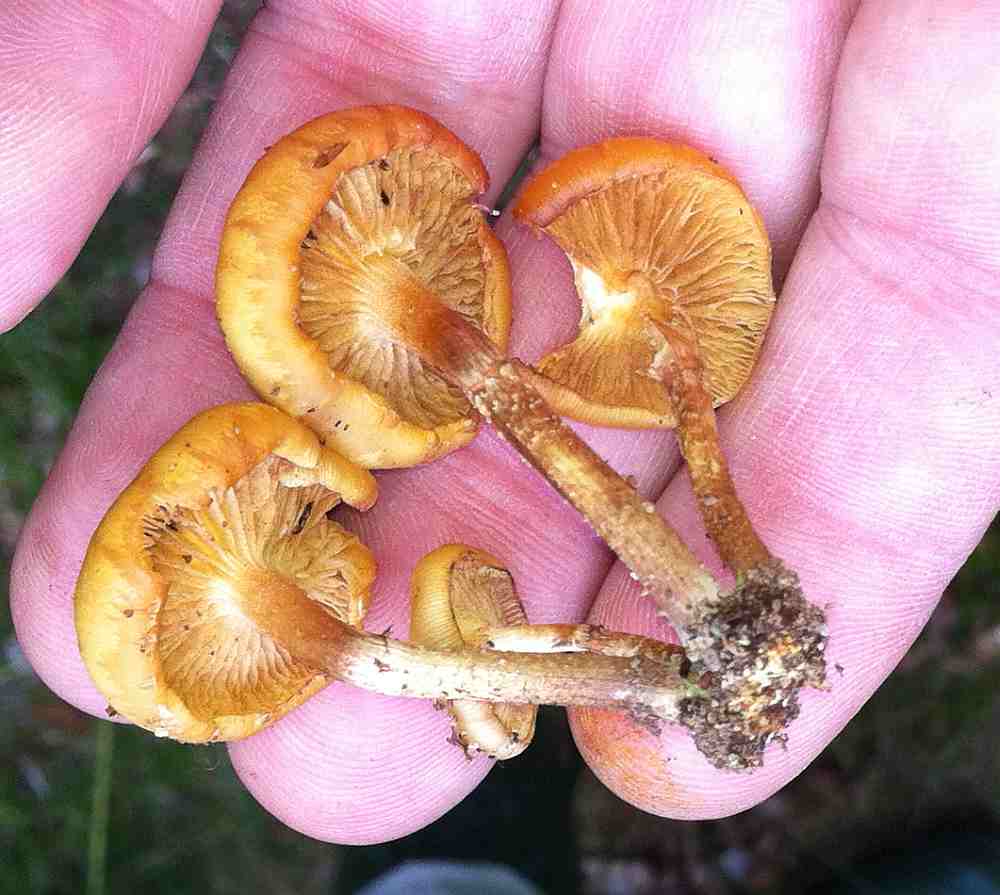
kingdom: Fungi
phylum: Basidiomycota
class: Agaricomycetes
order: Agaricales
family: Strophariaceae
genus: Kuehneromyces
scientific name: Kuehneromyces mutabilis
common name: foranderlig skælhat
